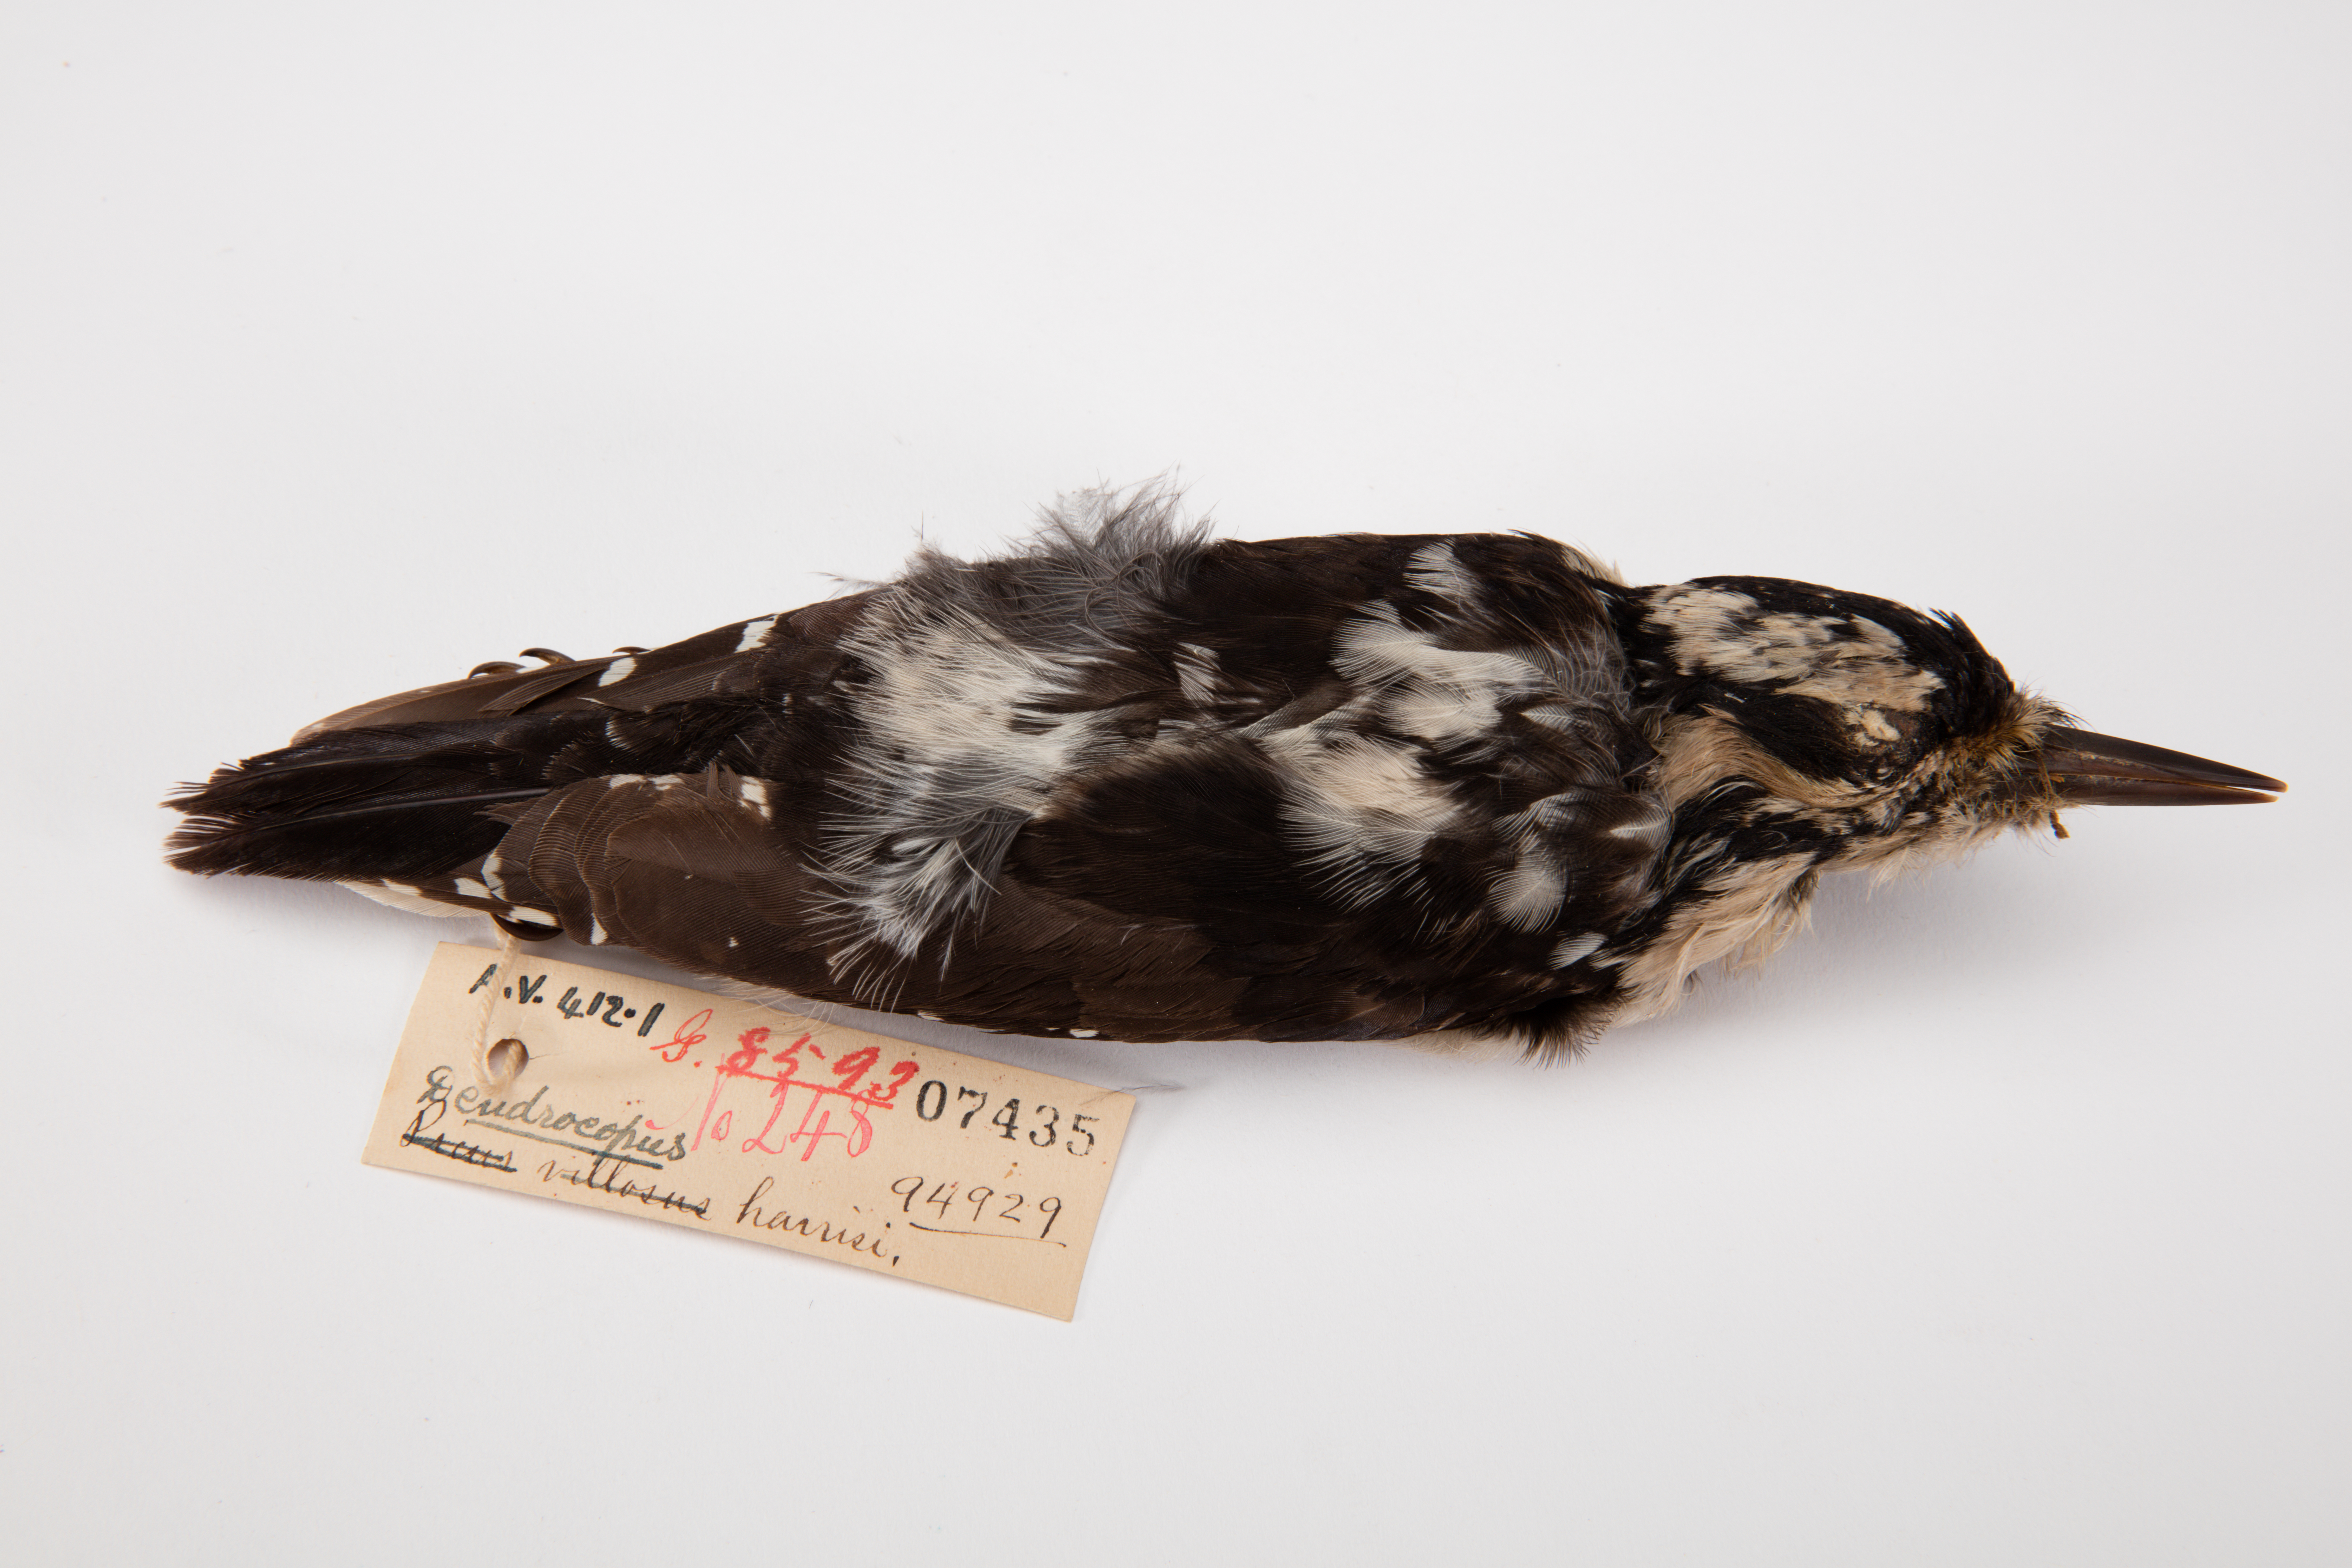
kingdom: Animalia
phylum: Chordata
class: Aves
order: Piciformes
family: Picidae
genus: Leuconotopicus
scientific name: Leuconotopicus villosus
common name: Hairy woodpecker
